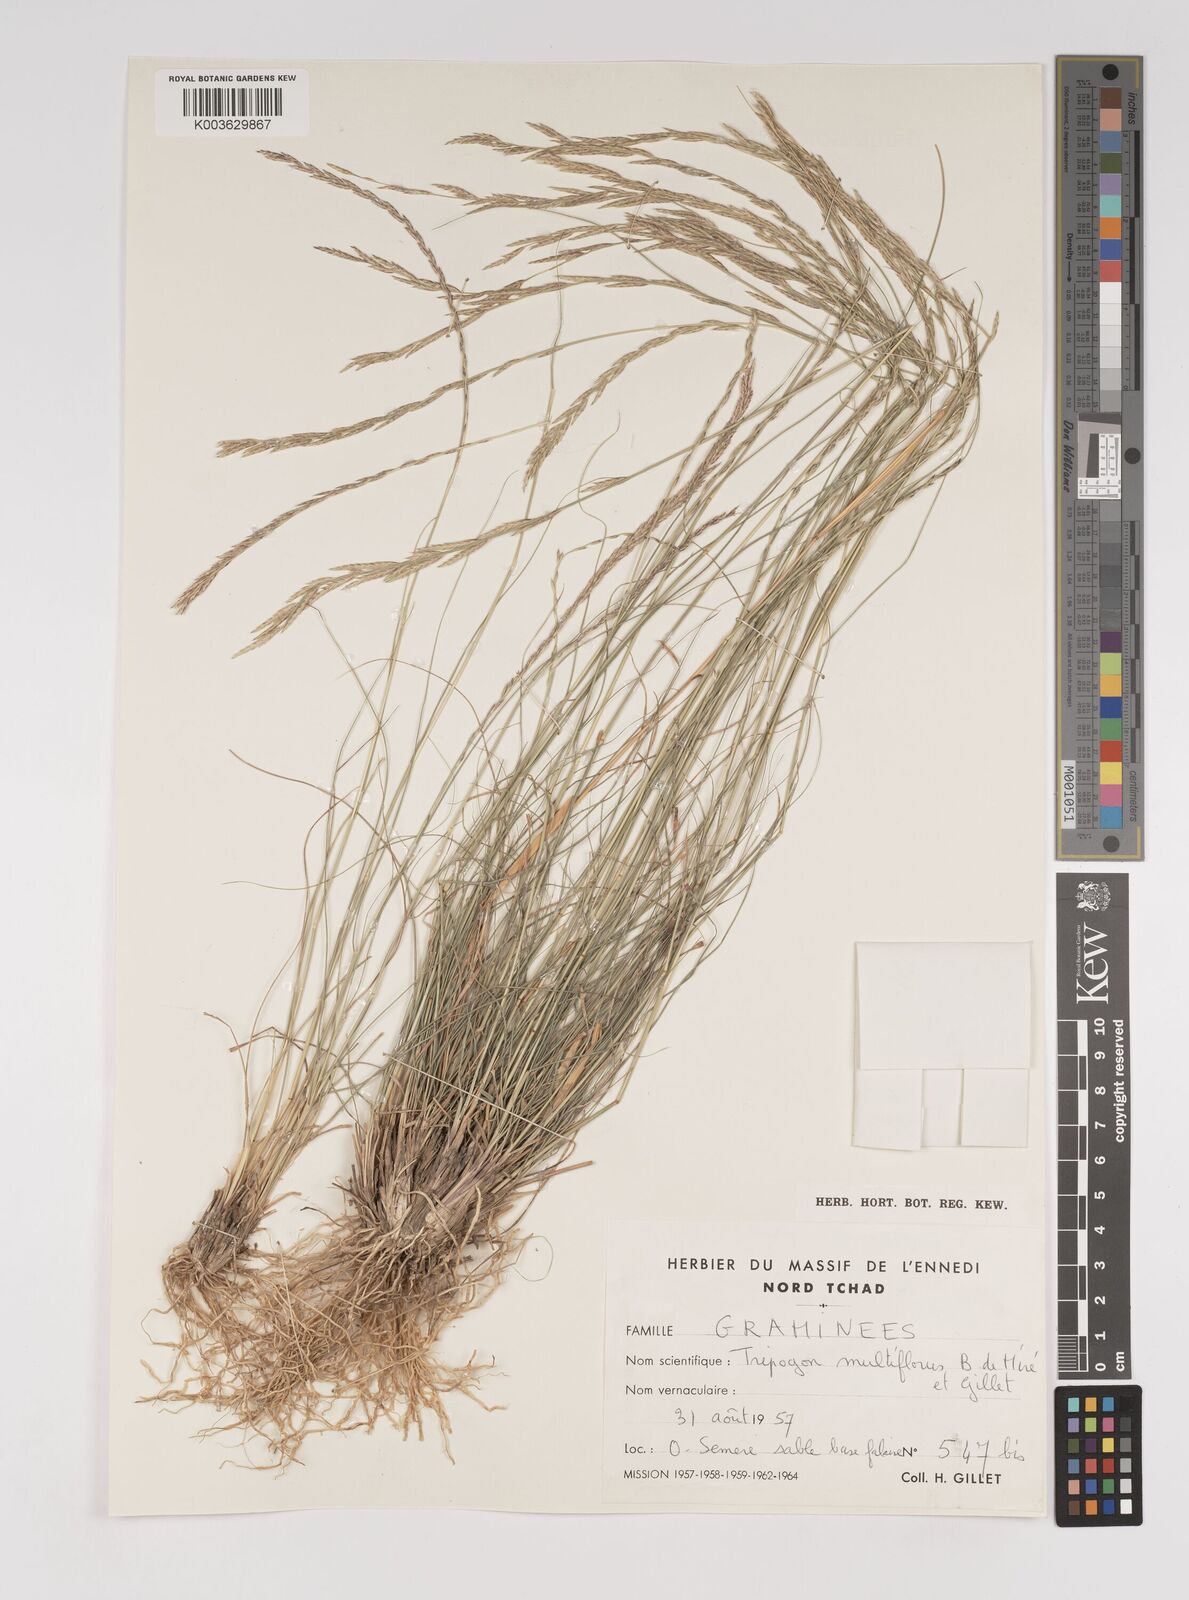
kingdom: Plantae
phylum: Tracheophyta
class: Liliopsida
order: Poales
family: Poaceae
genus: Tripogon
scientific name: Tripogon multiflorus
